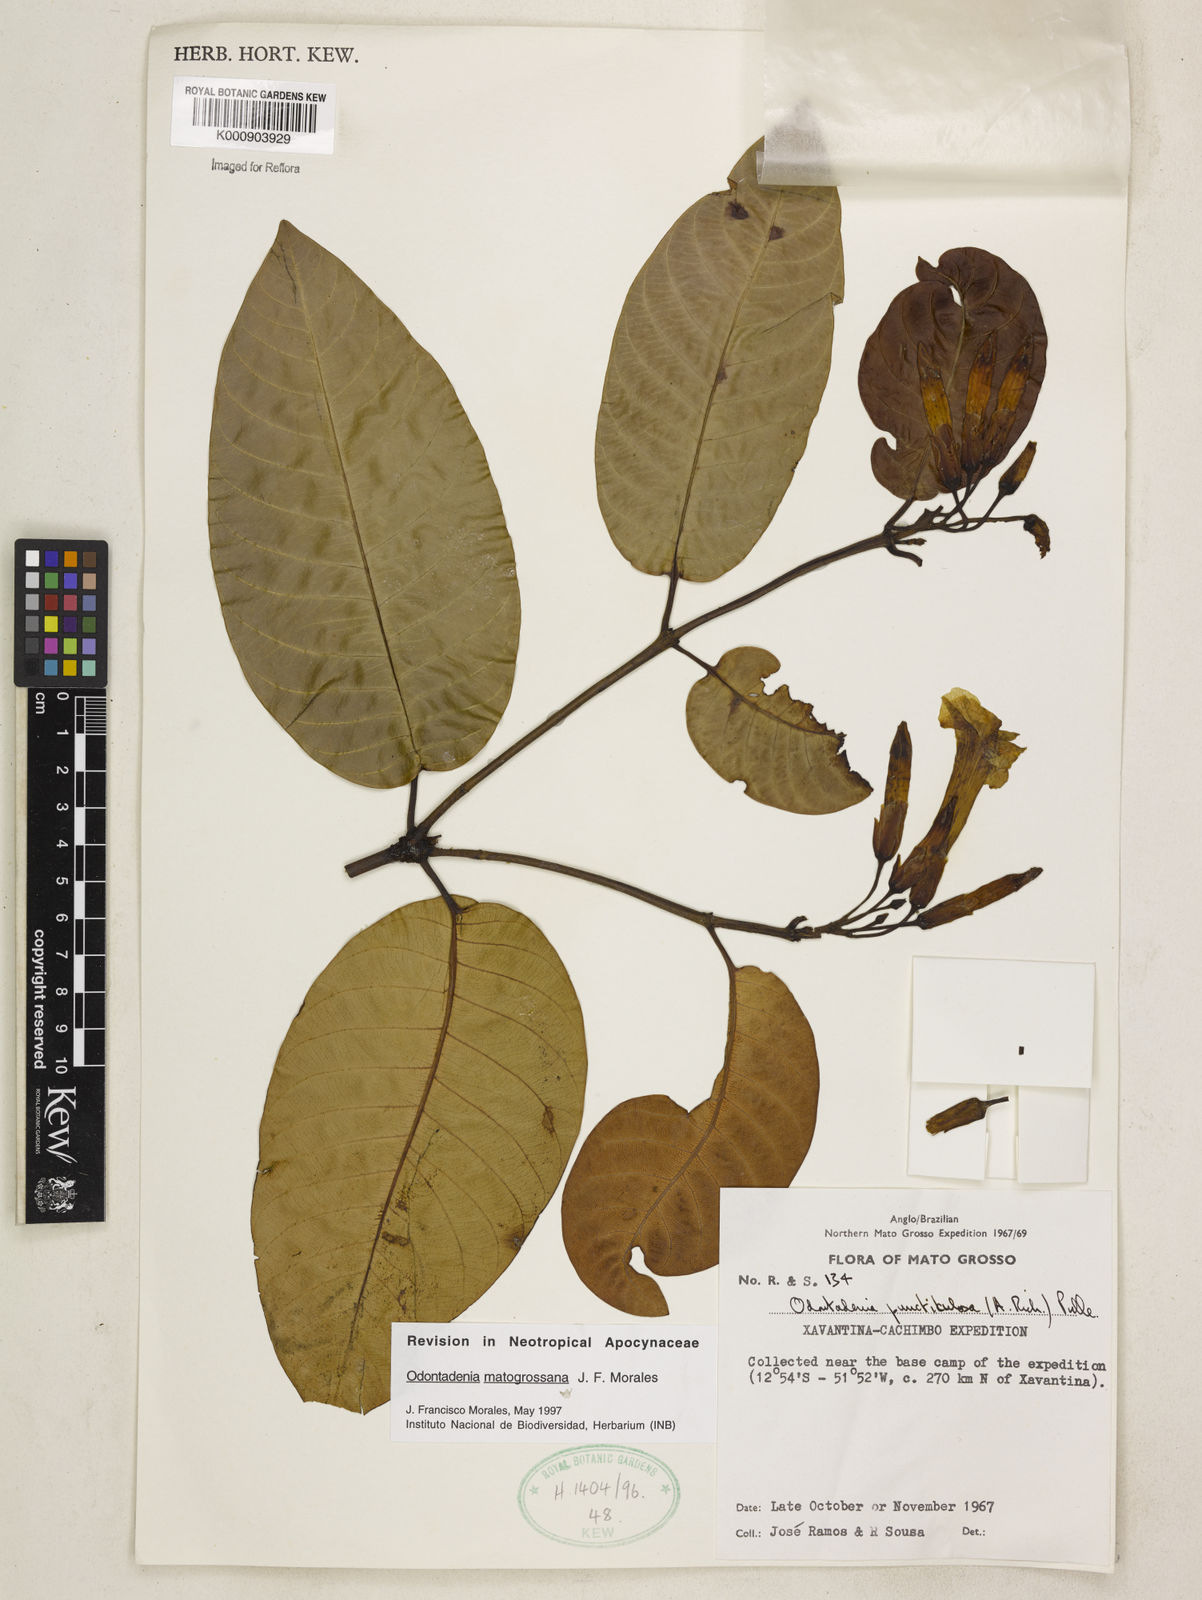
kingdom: Plantae
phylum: Tracheophyta
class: Magnoliopsida
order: Gentianales
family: Apocynaceae
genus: Odontadenia
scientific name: Odontadenia matogrossana
